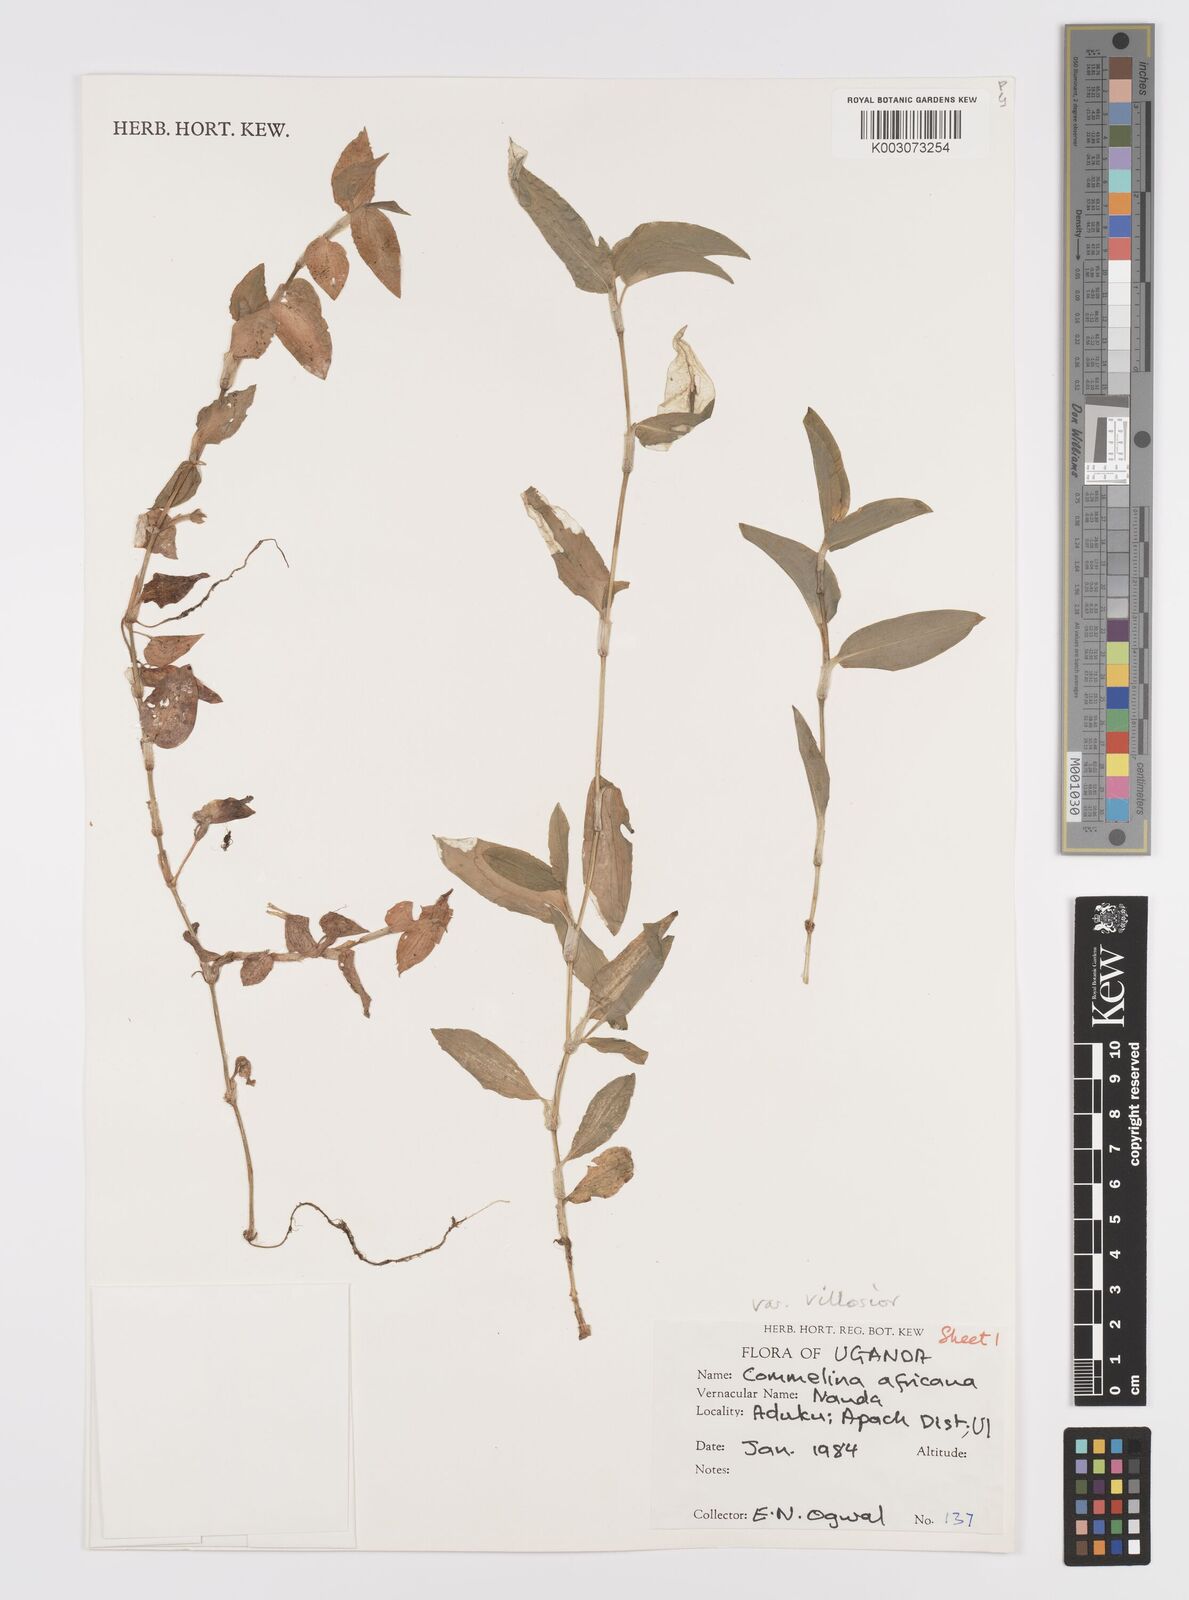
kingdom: Plantae
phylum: Tracheophyta
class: Liliopsida
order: Commelinales
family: Commelinaceae
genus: Commelina
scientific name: Commelina africana
